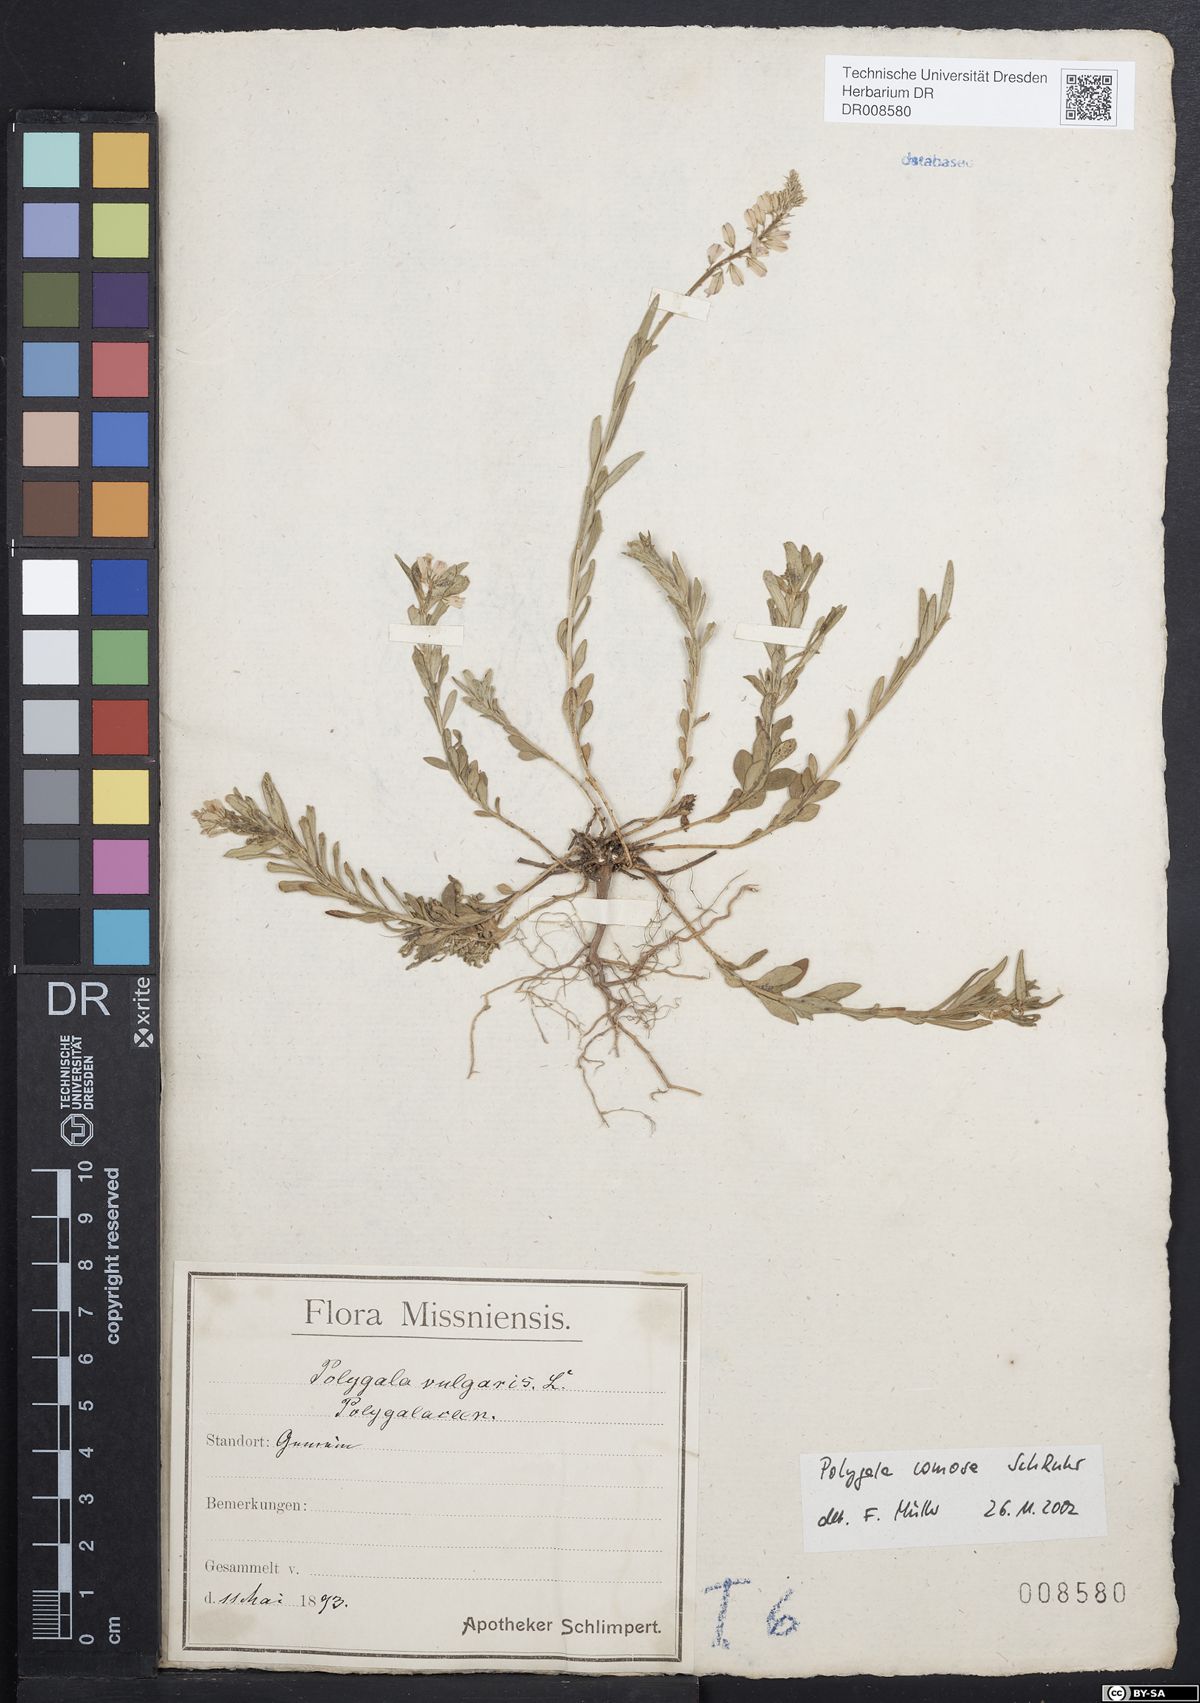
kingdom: Plantae
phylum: Tracheophyta
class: Magnoliopsida
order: Fabales
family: Polygalaceae
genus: Polygala
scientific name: Polygala comosa
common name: Tufted milkwort
